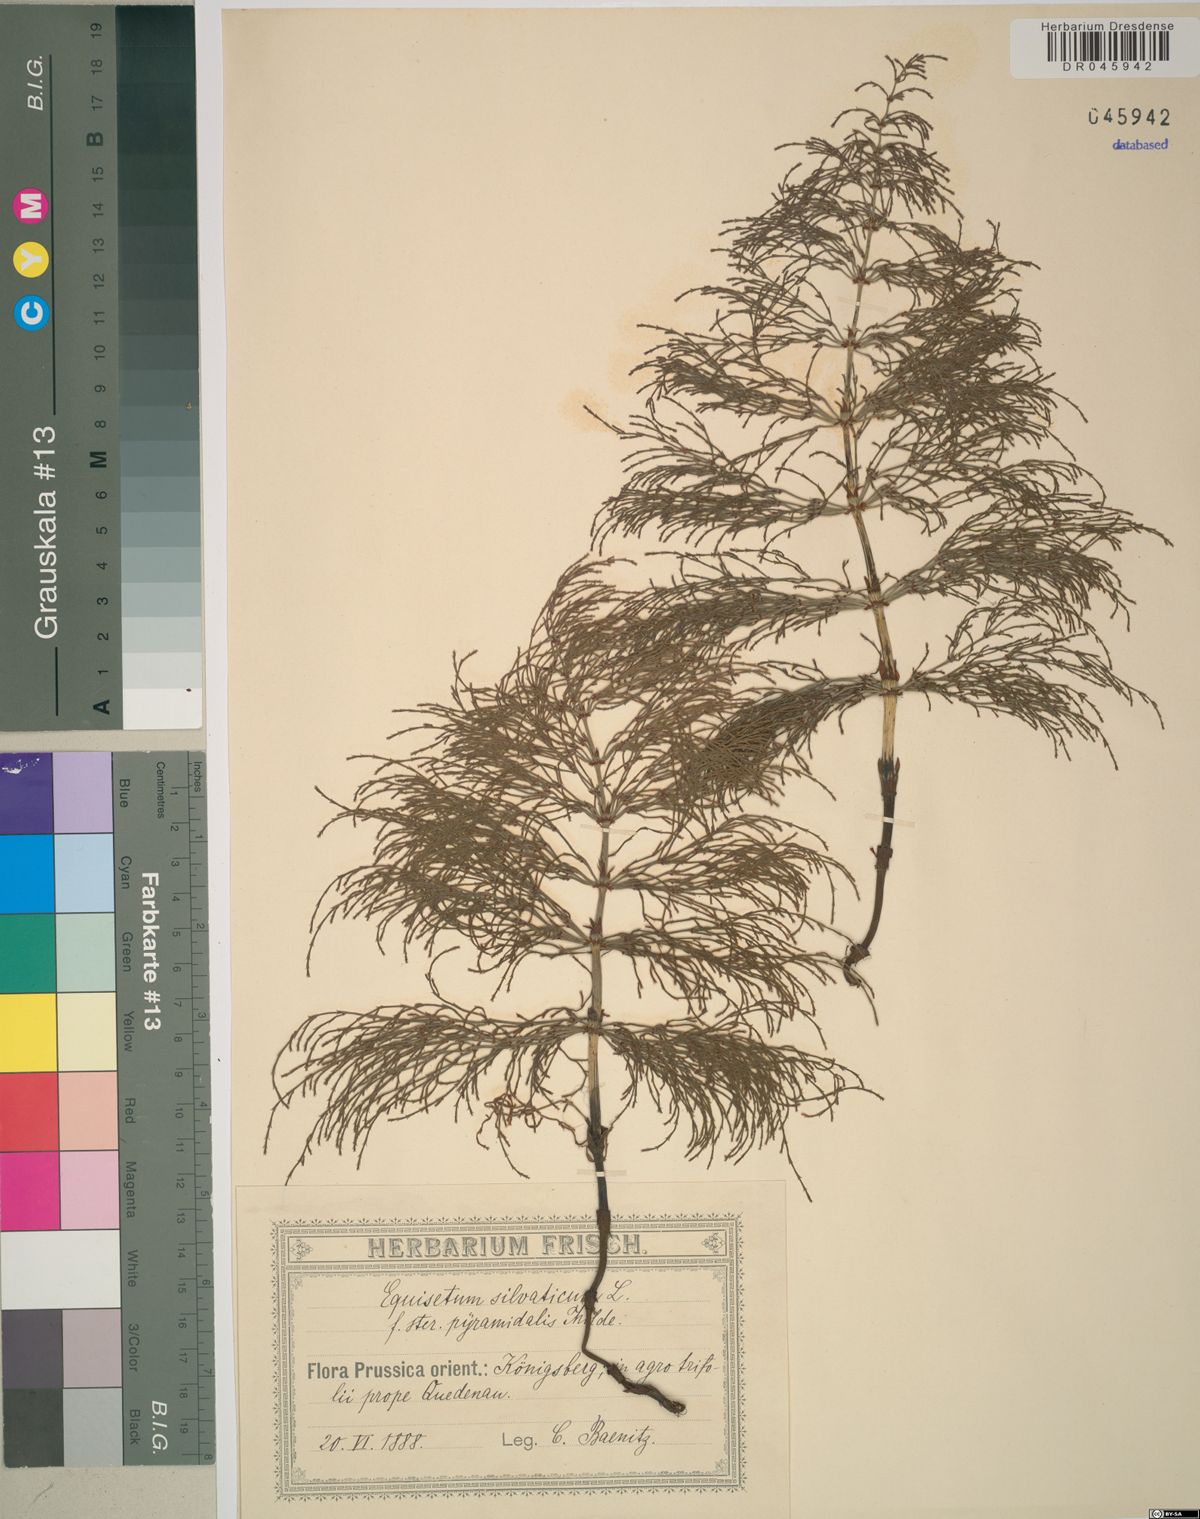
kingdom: Plantae
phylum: Tracheophyta
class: Polypodiopsida
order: Equisetales
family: Equisetaceae
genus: Equisetum
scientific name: Equisetum sylvaticum
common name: Wood horsetail
